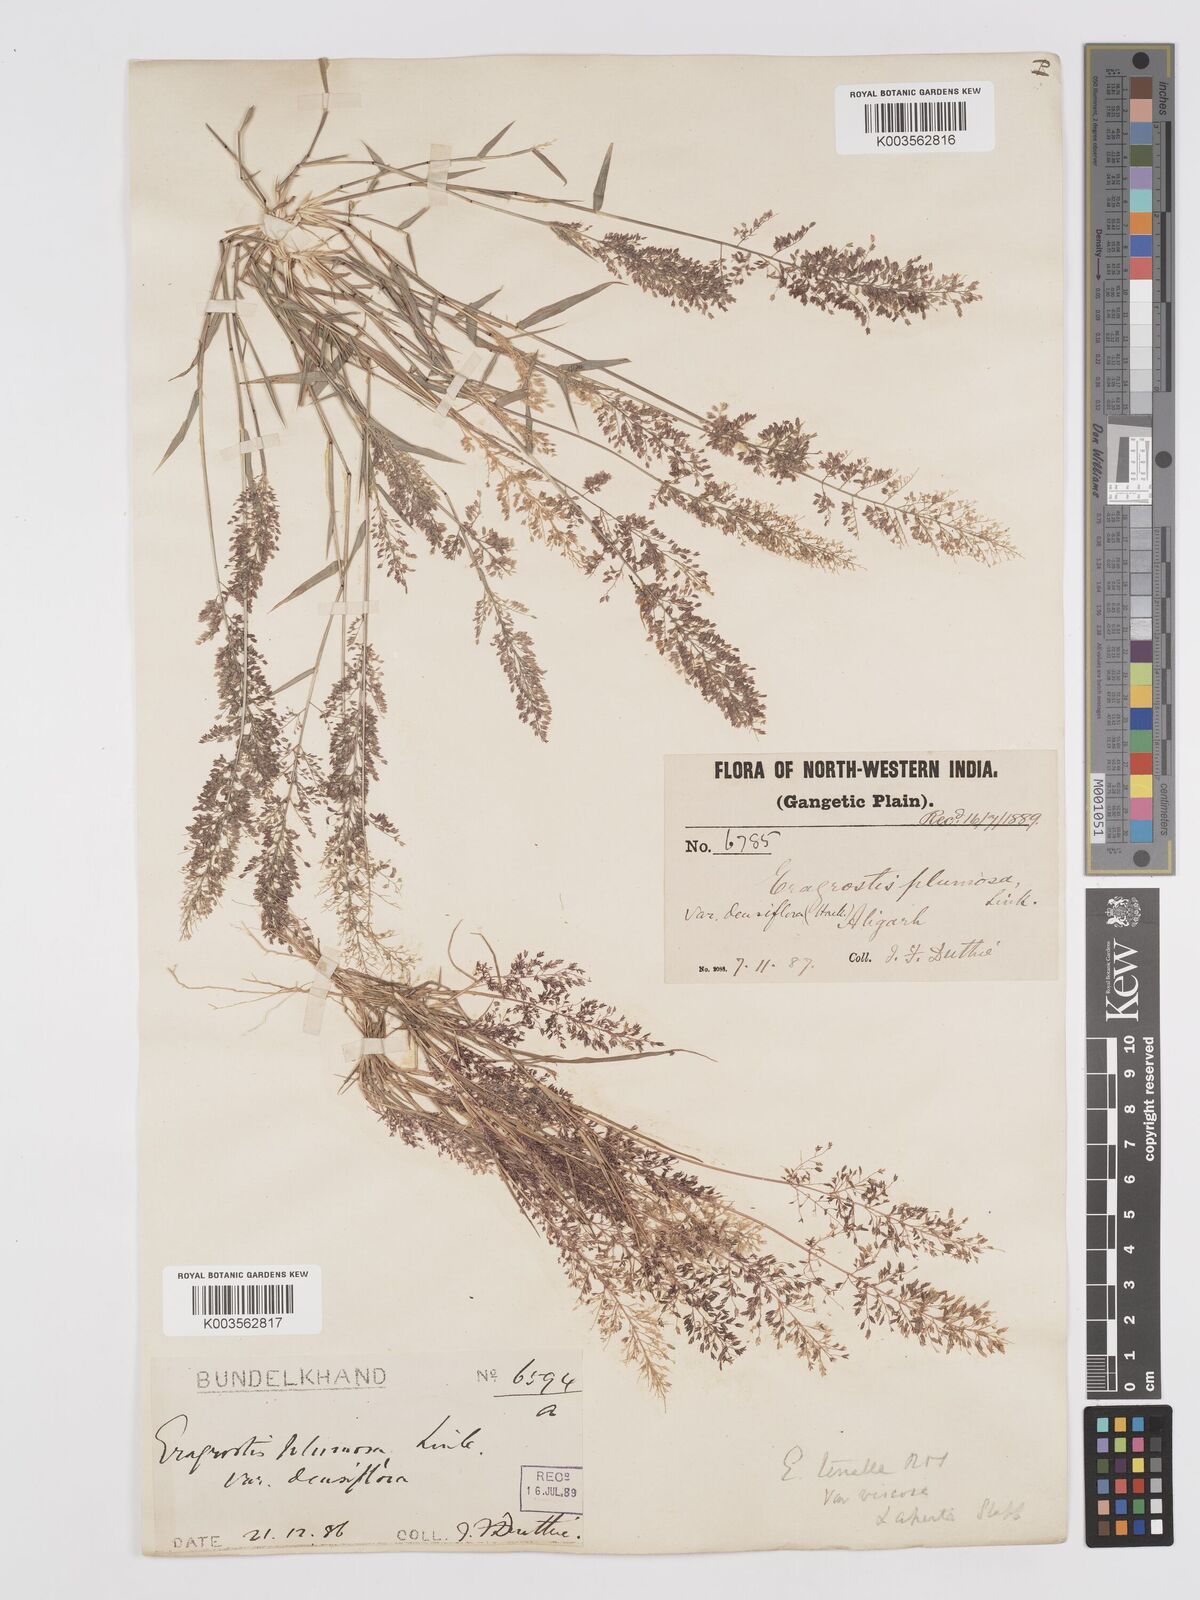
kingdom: Plantae
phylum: Tracheophyta
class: Liliopsida
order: Poales
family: Poaceae
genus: Eragrostis
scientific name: Eragrostis viscosa
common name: Sticky love grass
